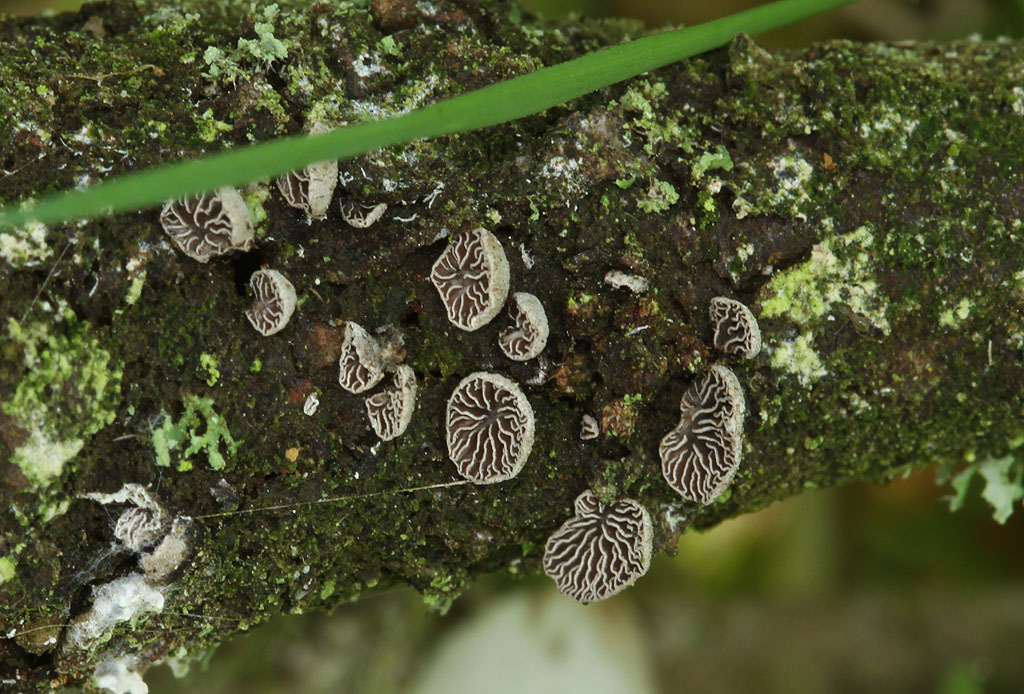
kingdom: Fungi
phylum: Basidiomycota
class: Agaricomycetes
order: Agaricales
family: Pleurotaceae
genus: Resupinatus
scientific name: Resupinatus trichotis
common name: mørkfiltet barkhat
